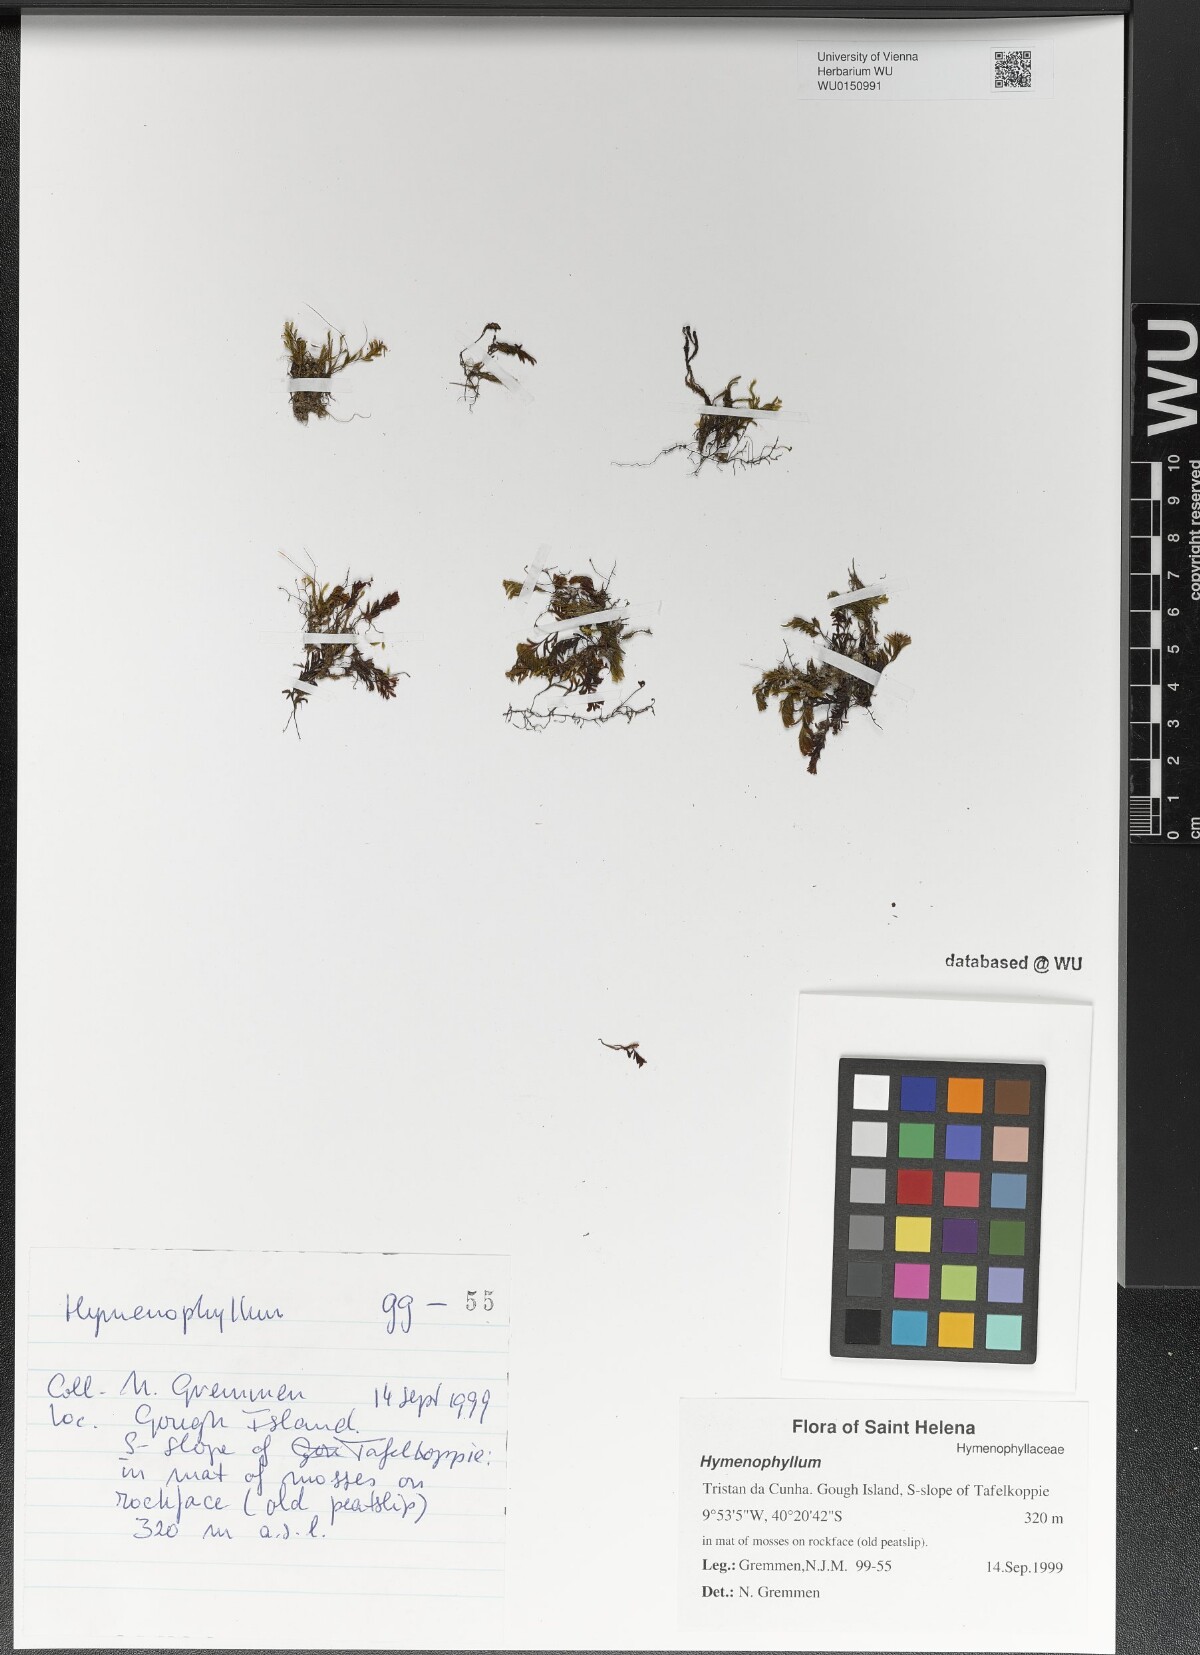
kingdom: Plantae
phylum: Tracheophyta
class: Polypodiopsida
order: Hymenophyllales
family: Hymenophyllaceae
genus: Hymenophyllum
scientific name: Hymenophyllum
